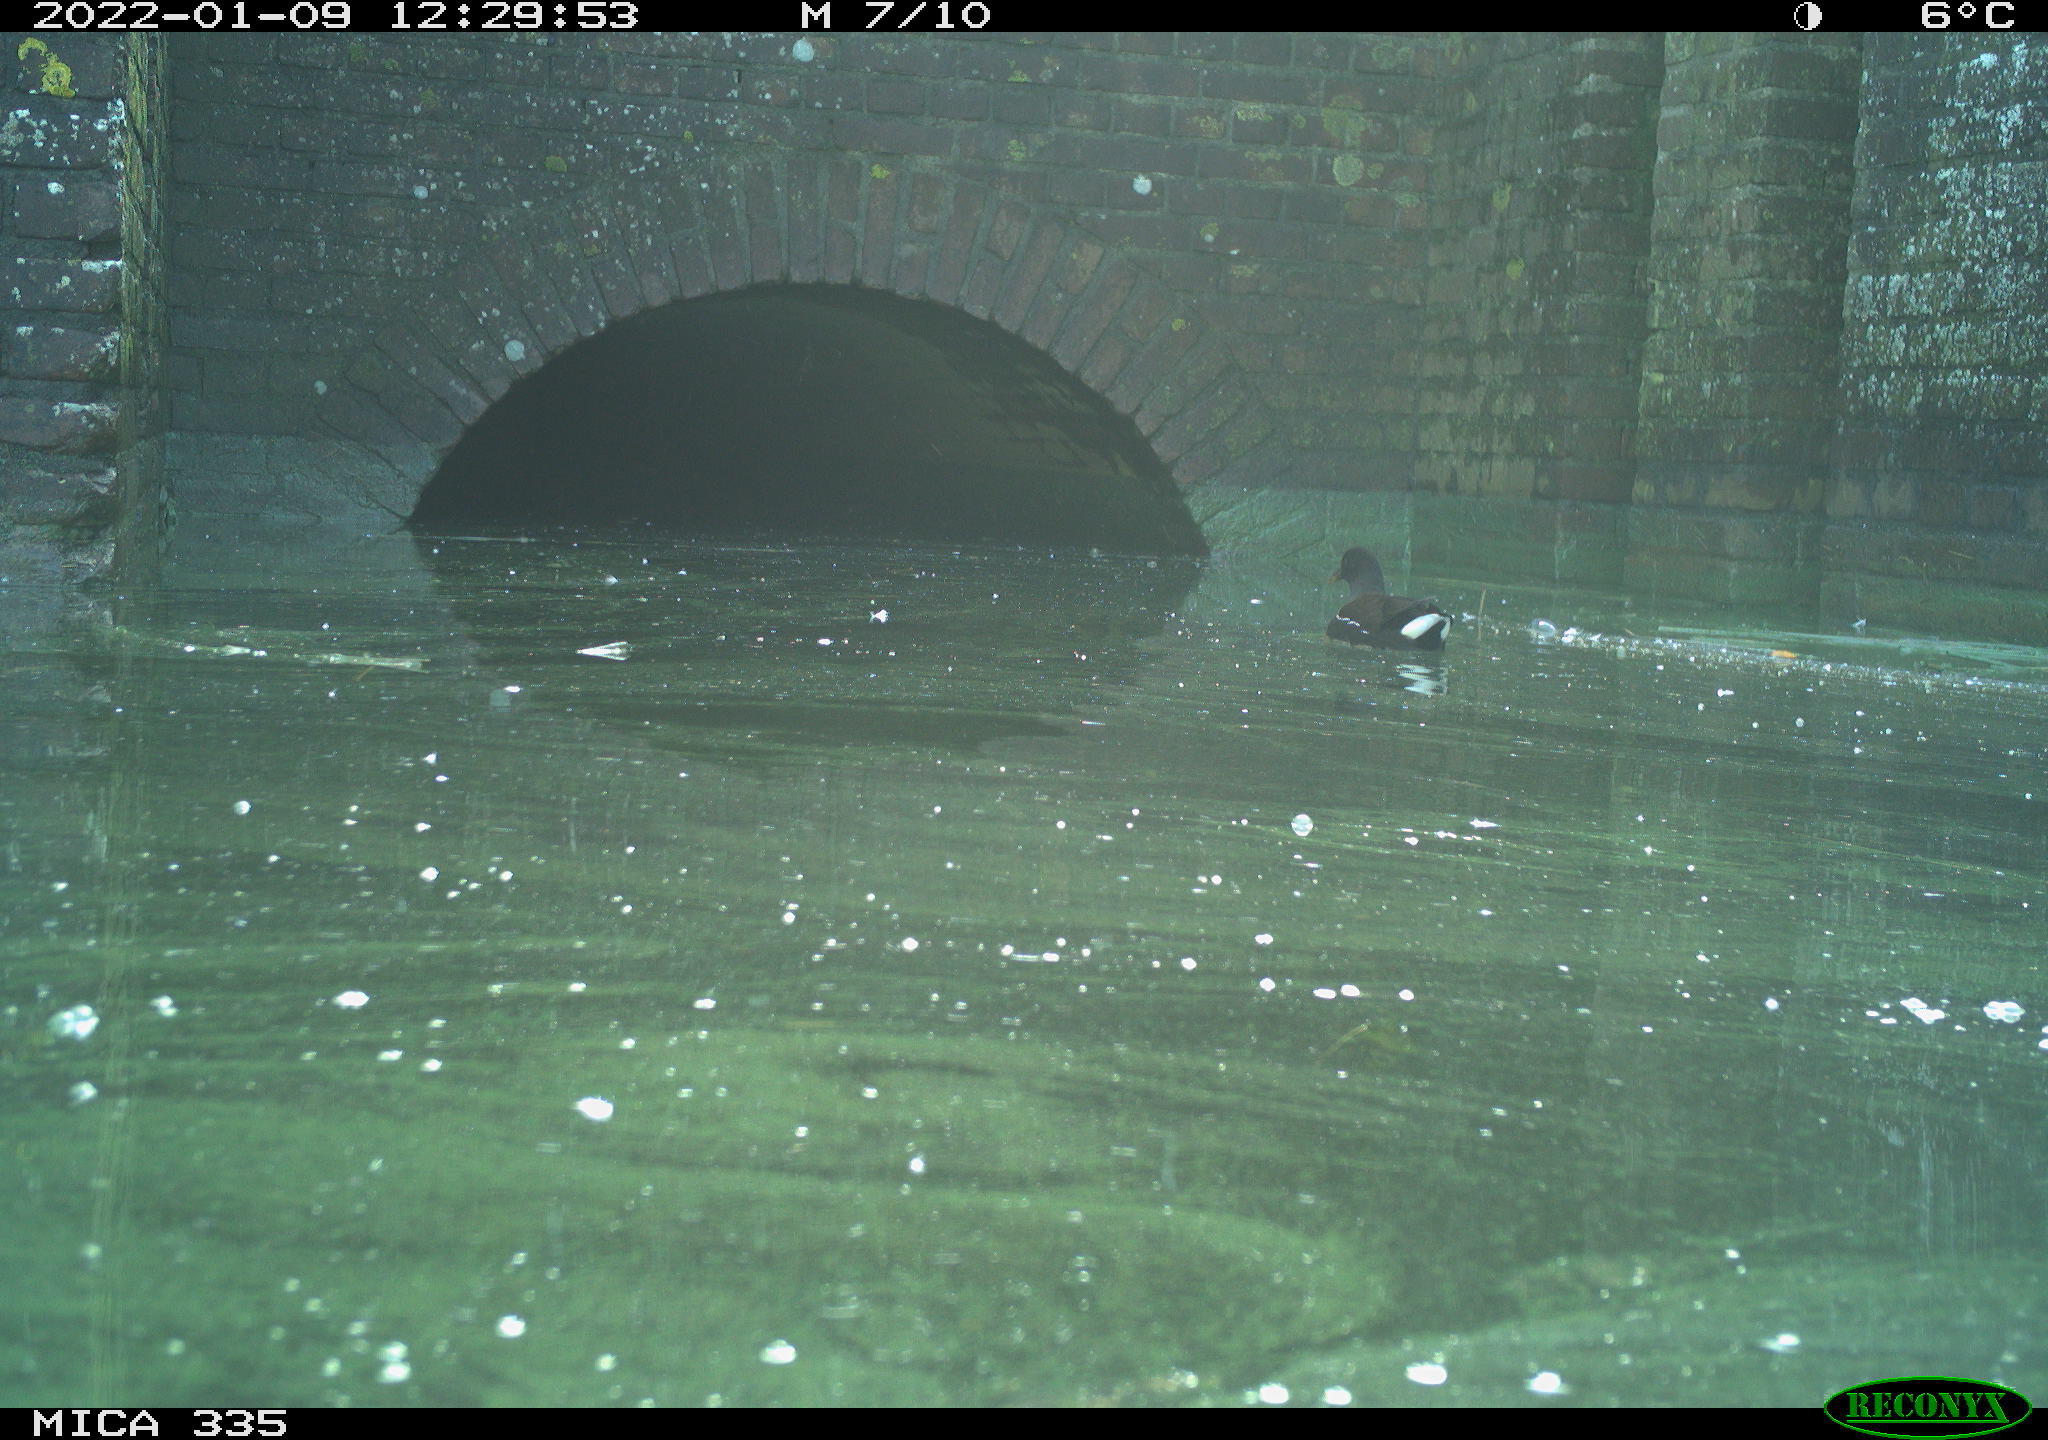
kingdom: Animalia
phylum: Chordata
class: Aves
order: Gruiformes
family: Rallidae
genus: Gallinula
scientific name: Gallinula chloropus
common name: Common moorhen
